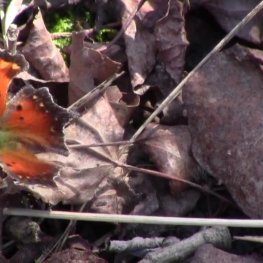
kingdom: Animalia
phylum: Arthropoda
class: Insecta
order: Lepidoptera
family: Nymphalidae
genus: Polygonia
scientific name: Polygonia progne
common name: Gray Comma
